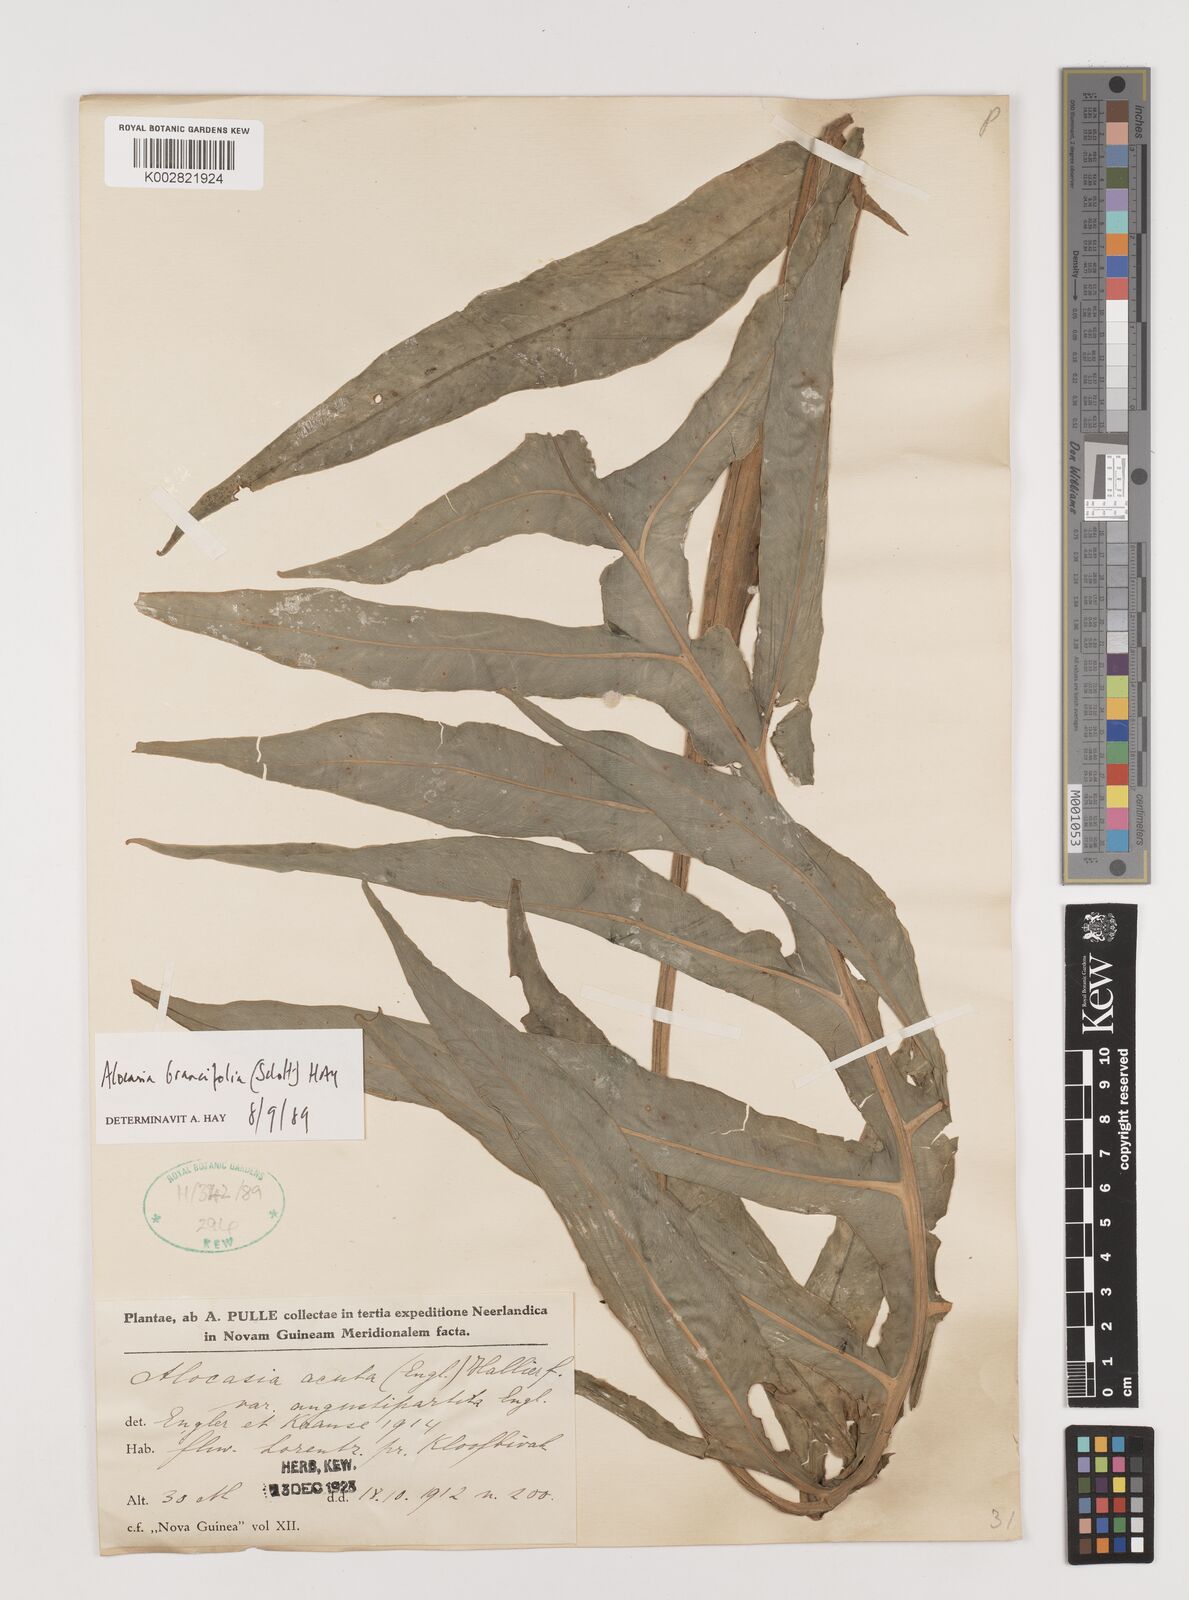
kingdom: Plantae
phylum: Tracheophyta
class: Liliopsida
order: Alismatales
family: Araceae
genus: Alocasia
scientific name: Alocasia brancifolia
